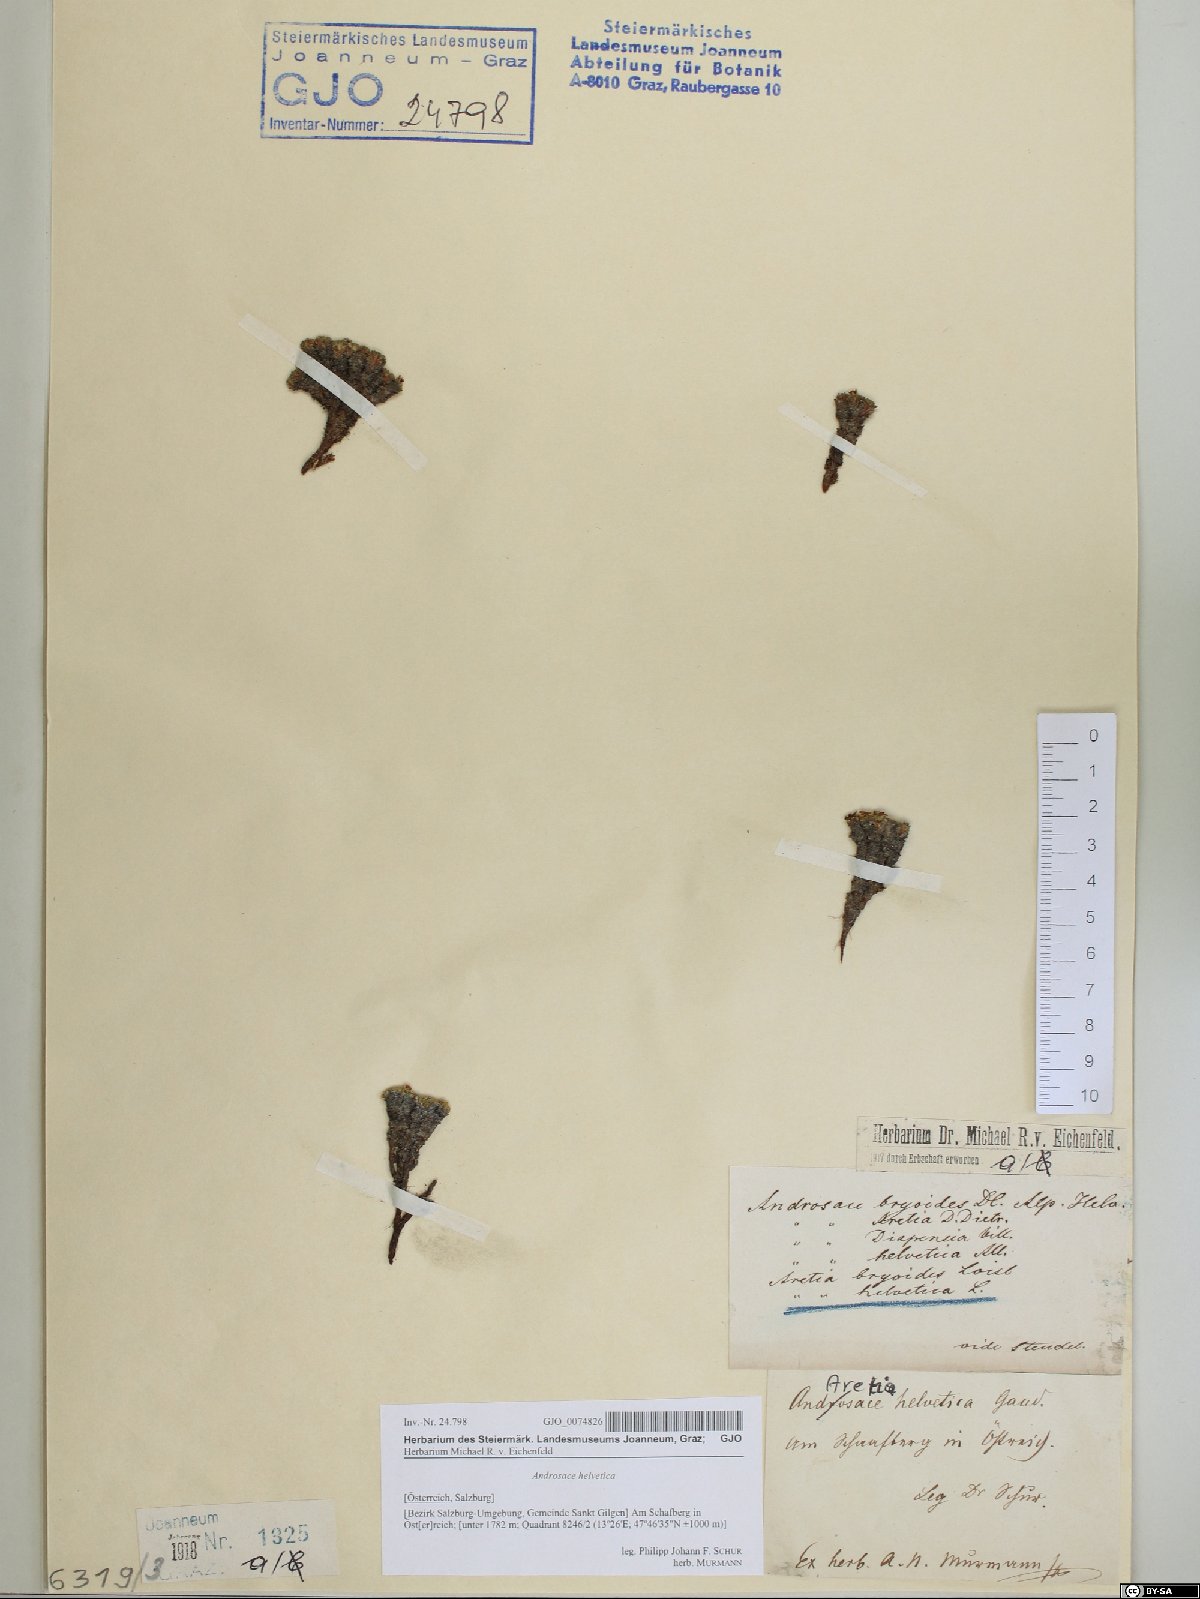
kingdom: Plantae
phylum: Tracheophyta
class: Magnoliopsida
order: Ericales
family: Primulaceae
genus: Androsace
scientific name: Androsace helvetica
